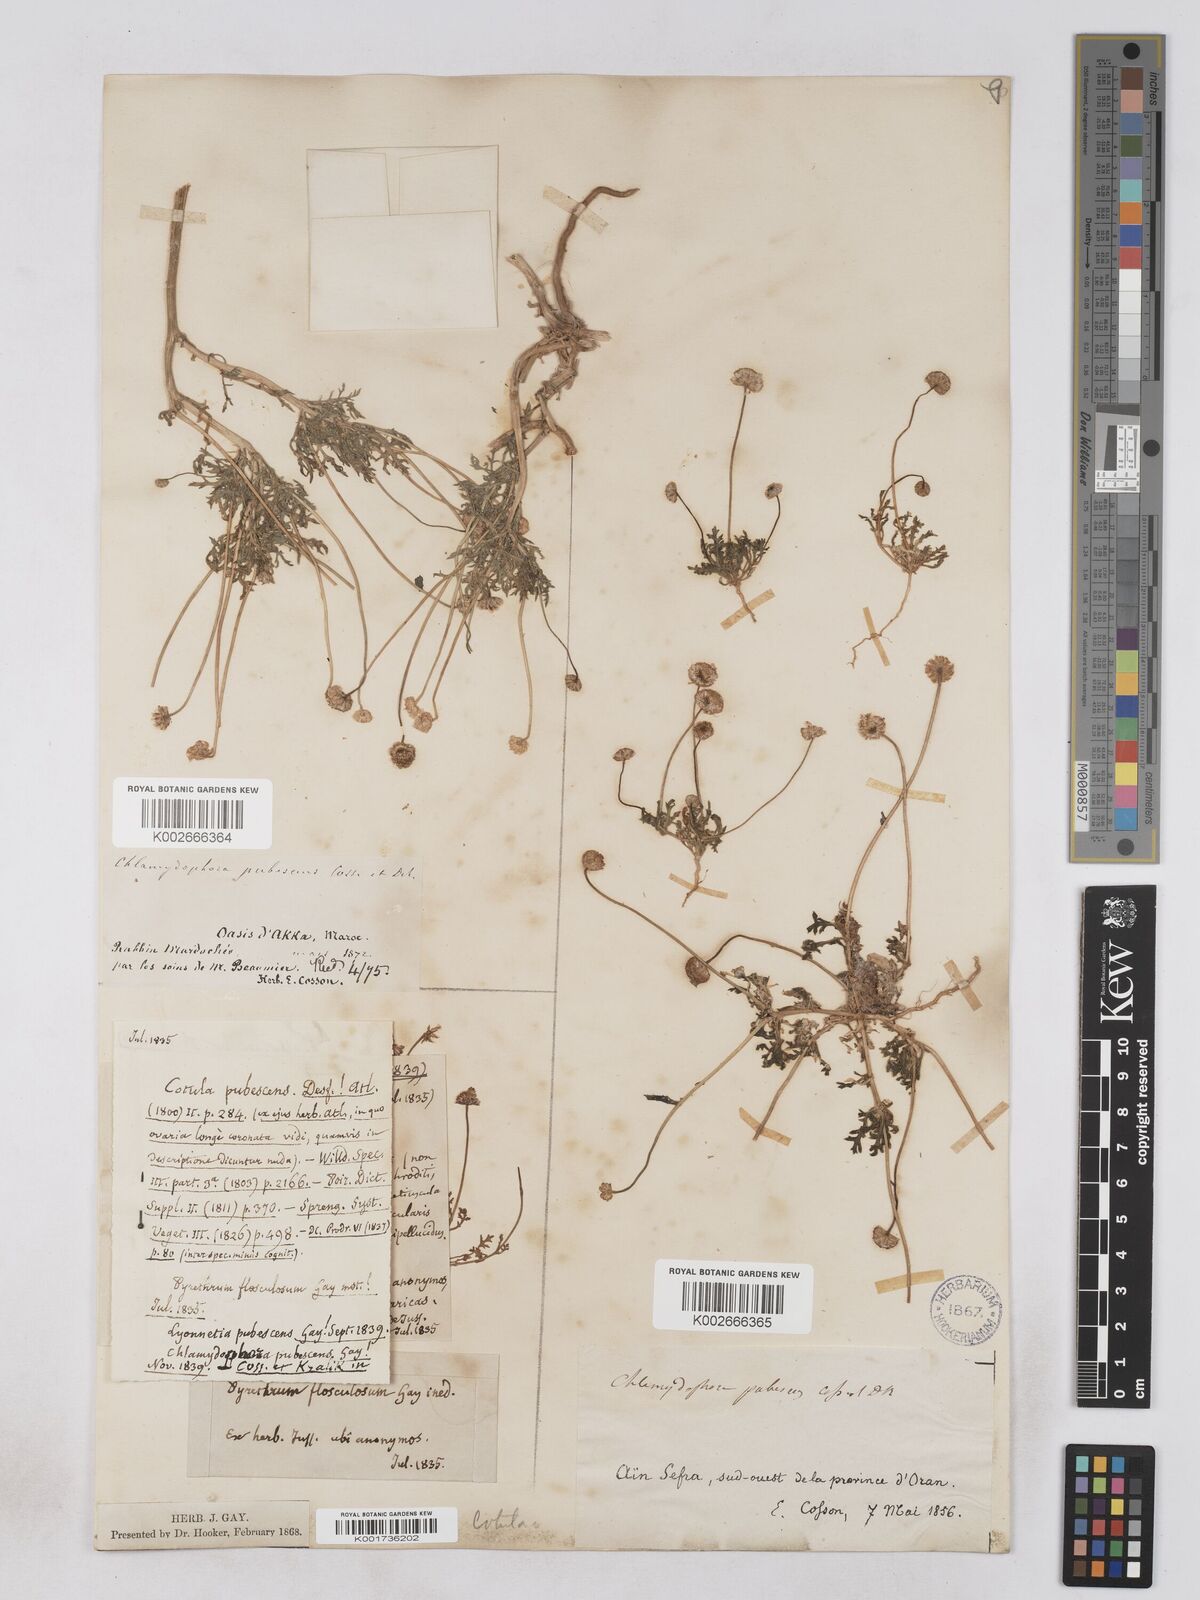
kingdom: Plantae
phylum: Tracheophyta
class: Magnoliopsida
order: Asterales
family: Asteraceae
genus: Otoglyphis
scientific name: Otoglyphis pubescens
